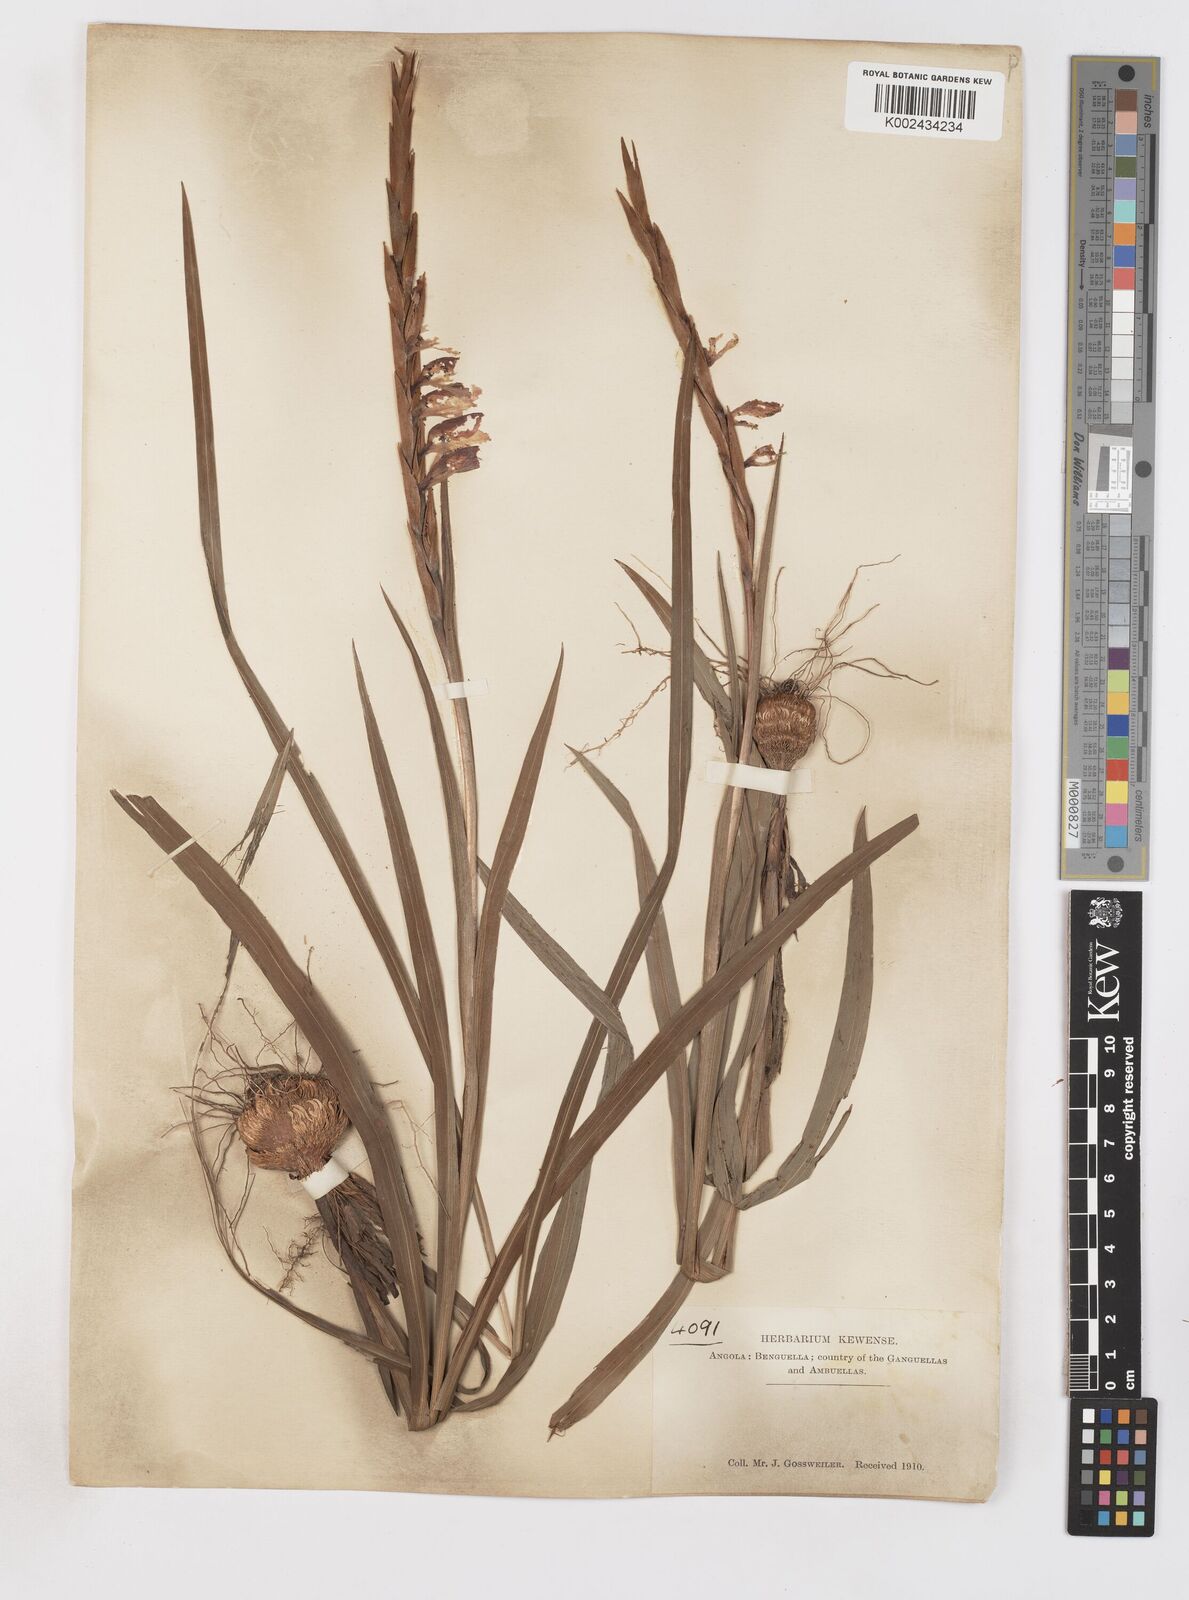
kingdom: Plantae
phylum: Tracheophyta
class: Liliopsida
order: Asparagales
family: Iridaceae
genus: Gladiolus
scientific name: Gladiolus gregarius
